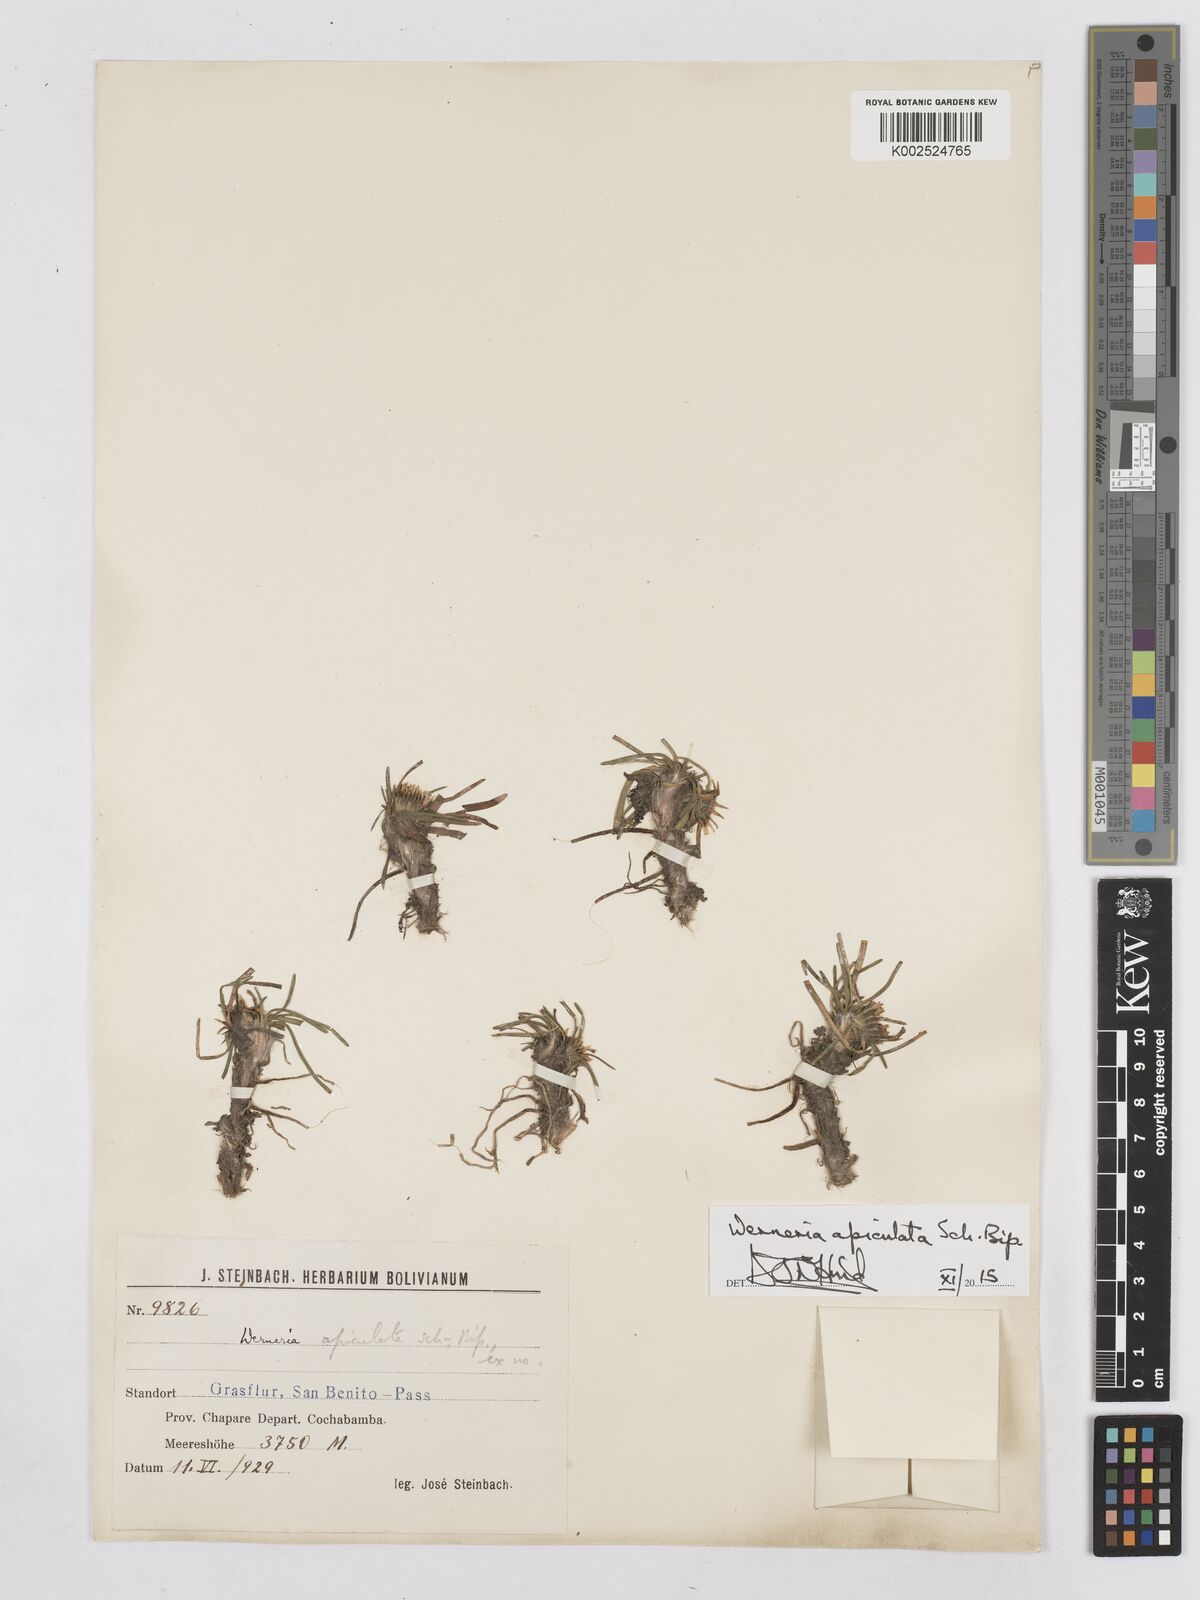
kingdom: Plantae
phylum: Tracheophyta
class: Magnoliopsida
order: Asterales
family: Asteraceae
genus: Rockhausenia
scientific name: Rockhausenia apiculata
